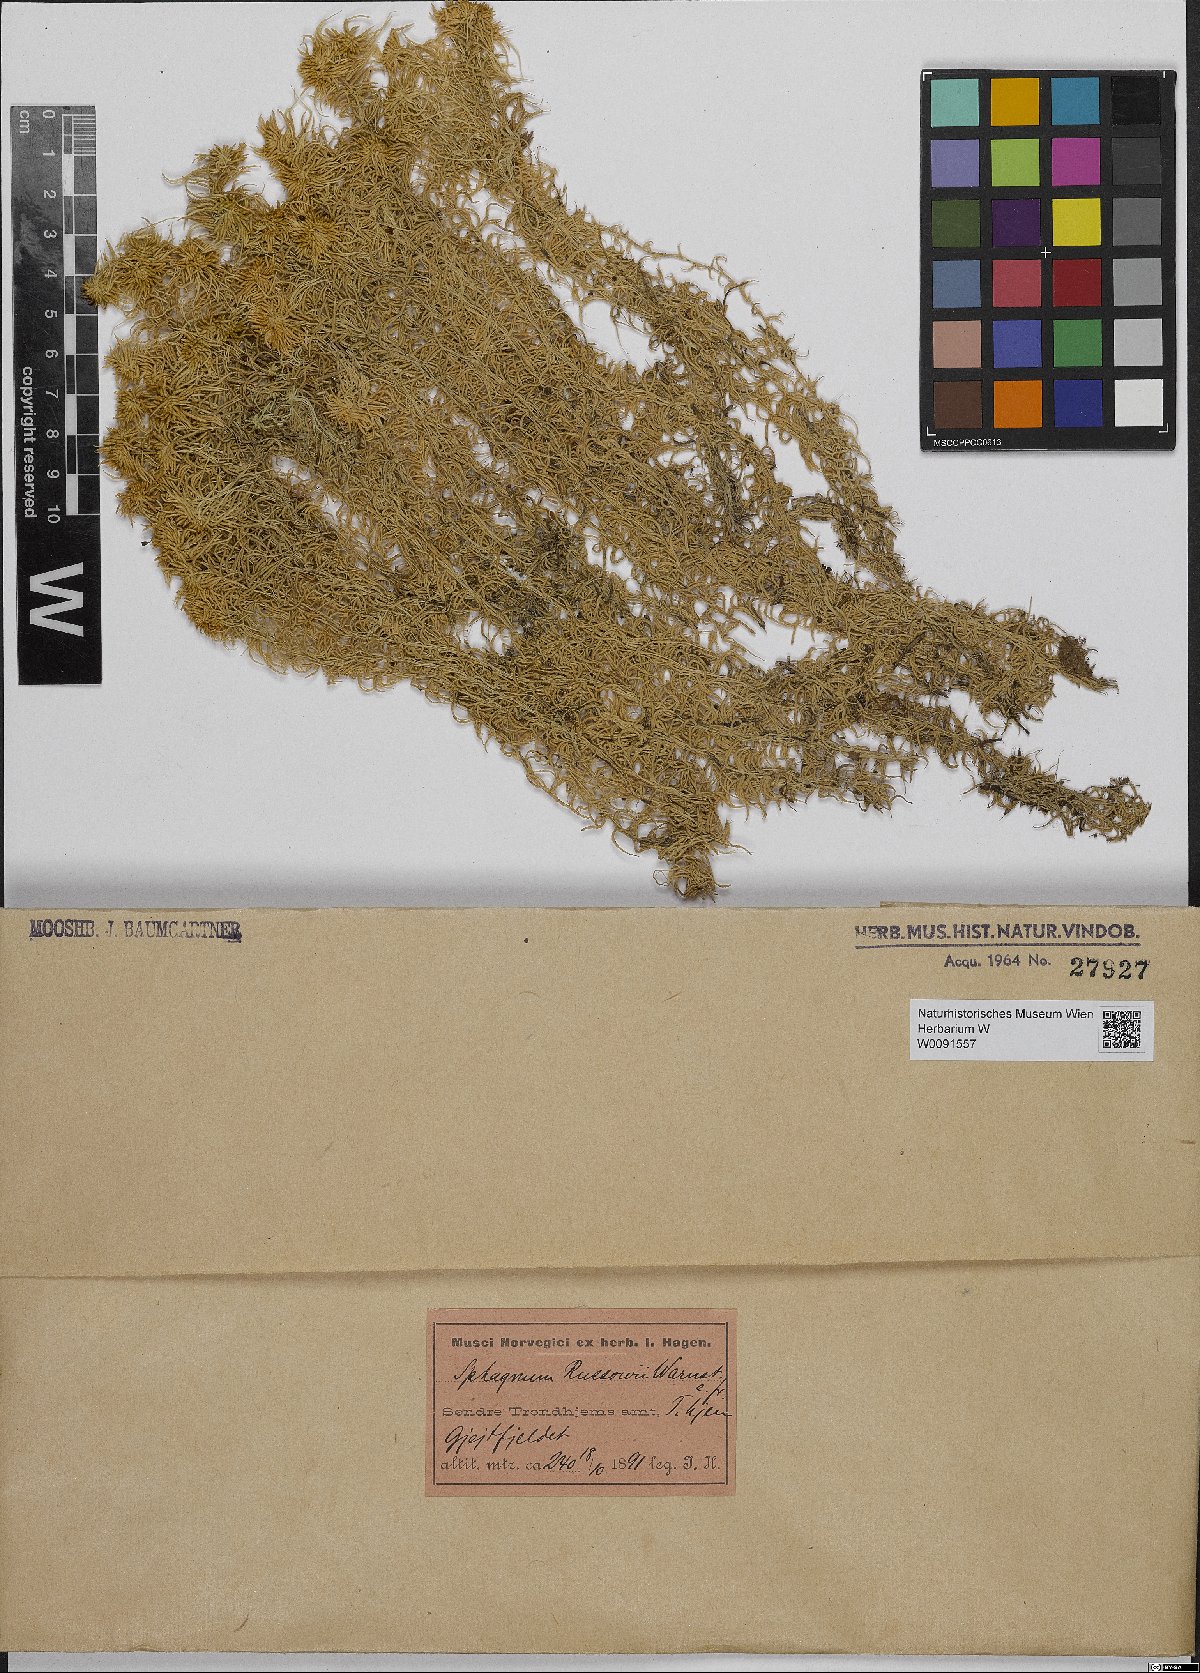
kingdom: Plantae
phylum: Bryophyta
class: Sphagnopsida
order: Sphagnales
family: Sphagnaceae
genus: Sphagnum
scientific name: Sphagnum russowii
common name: Russow's peat moss
